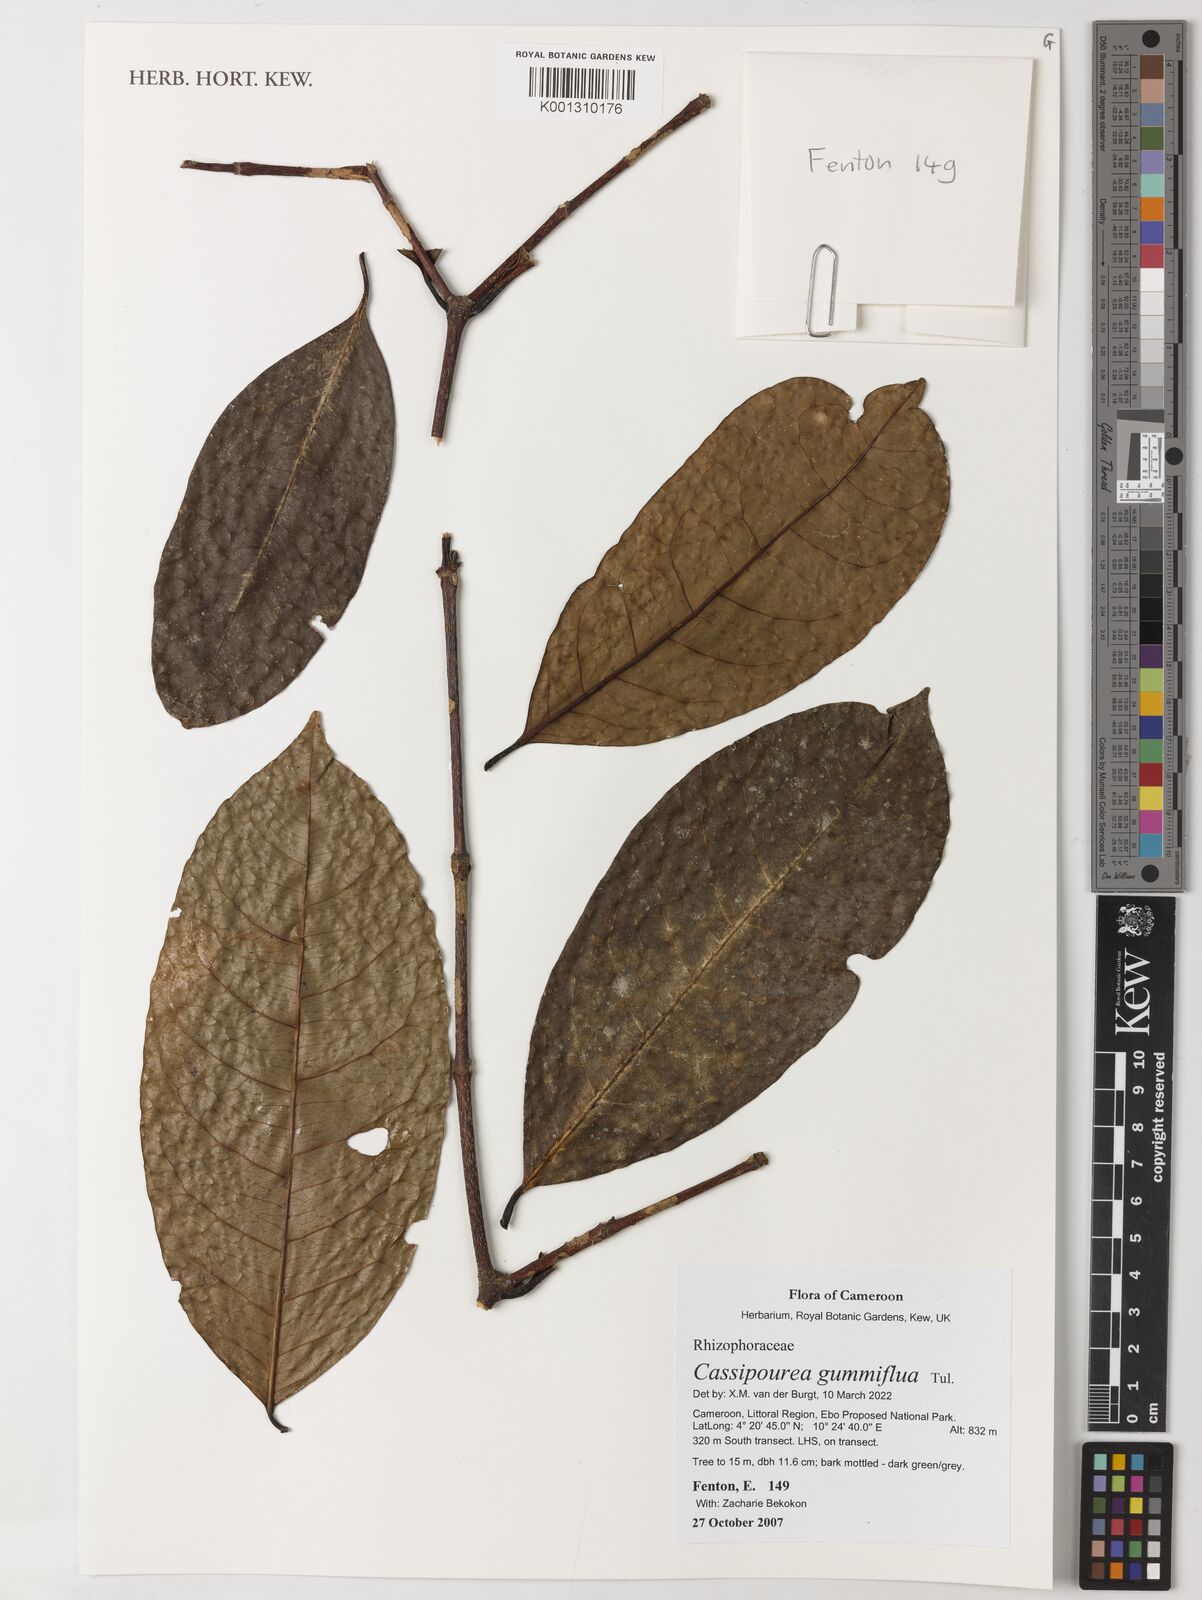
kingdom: Plantae
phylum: Tracheophyta
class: Magnoliopsida
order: Malpighiales
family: Rhizophoraceae
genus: Cassipourea
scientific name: Cassipourea gummiflua
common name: Large-leaved onionwood
